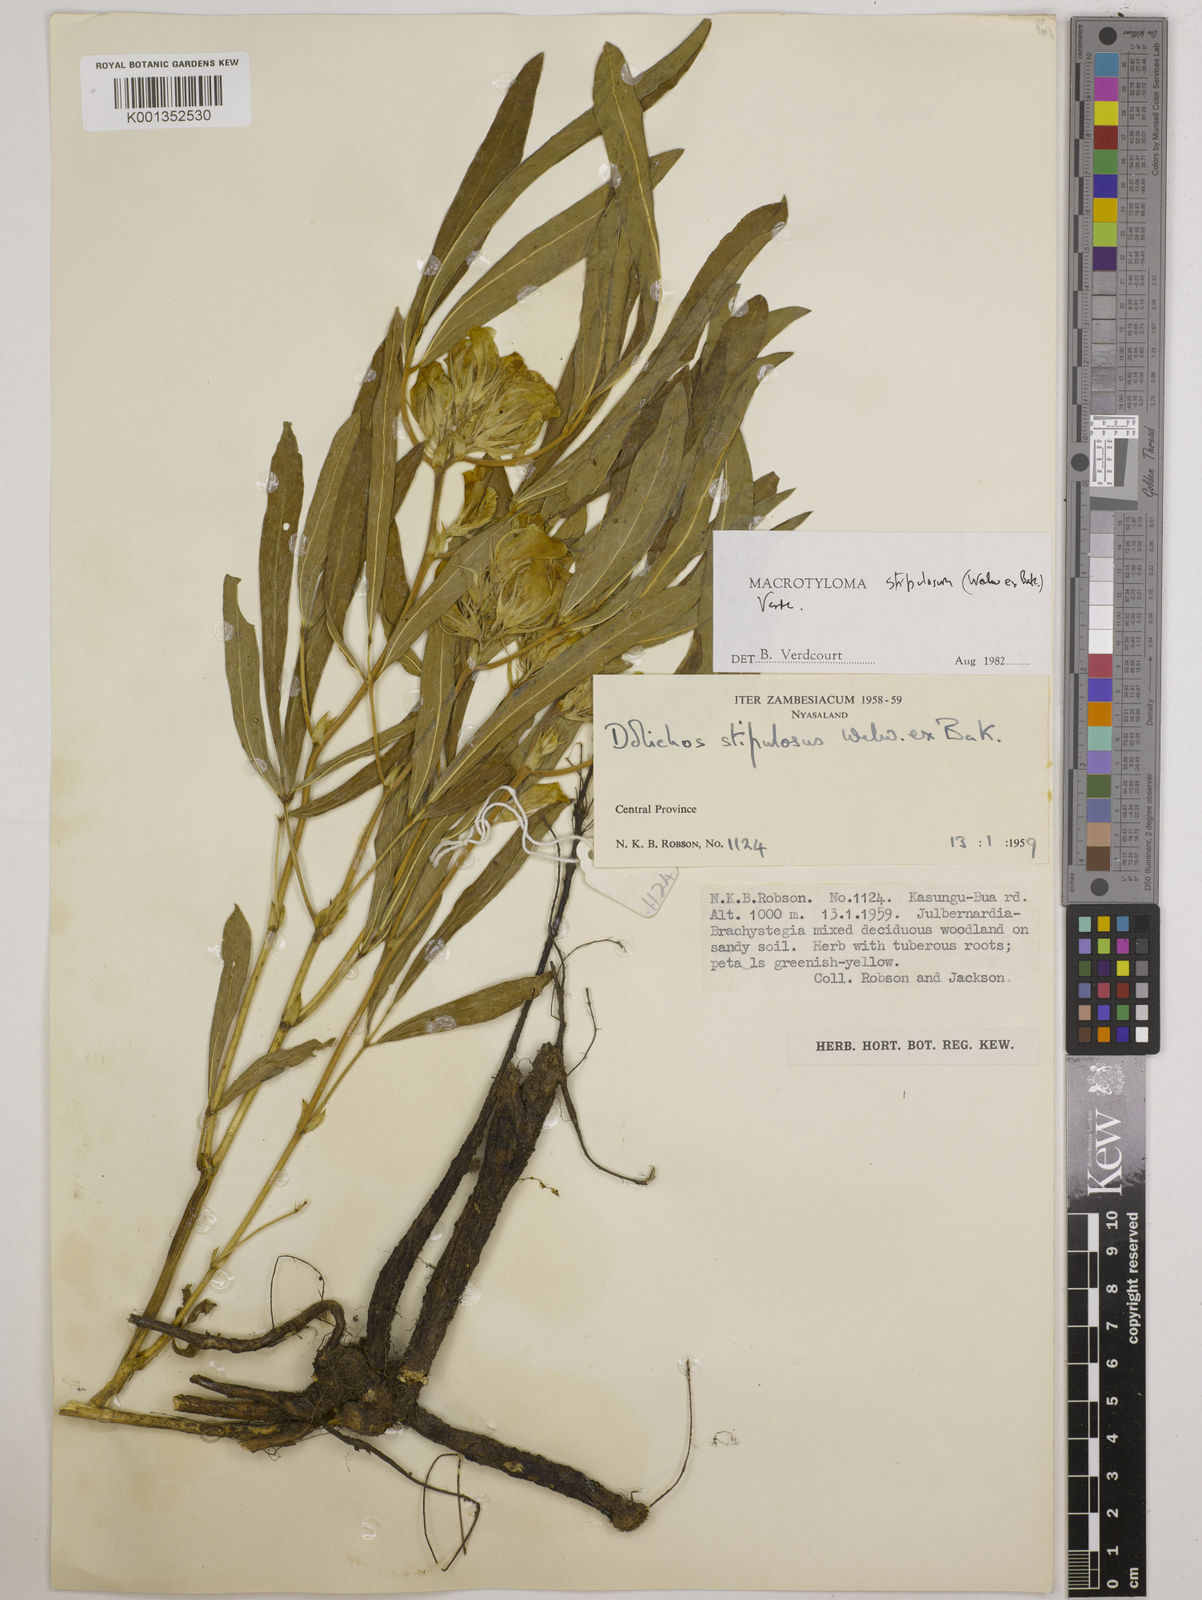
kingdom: Plantae
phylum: Tracheophyta
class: Magnoliopsida
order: Fabales
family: Fabaceae
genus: Macrotyloma
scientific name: Macrotyloma stipulosum
